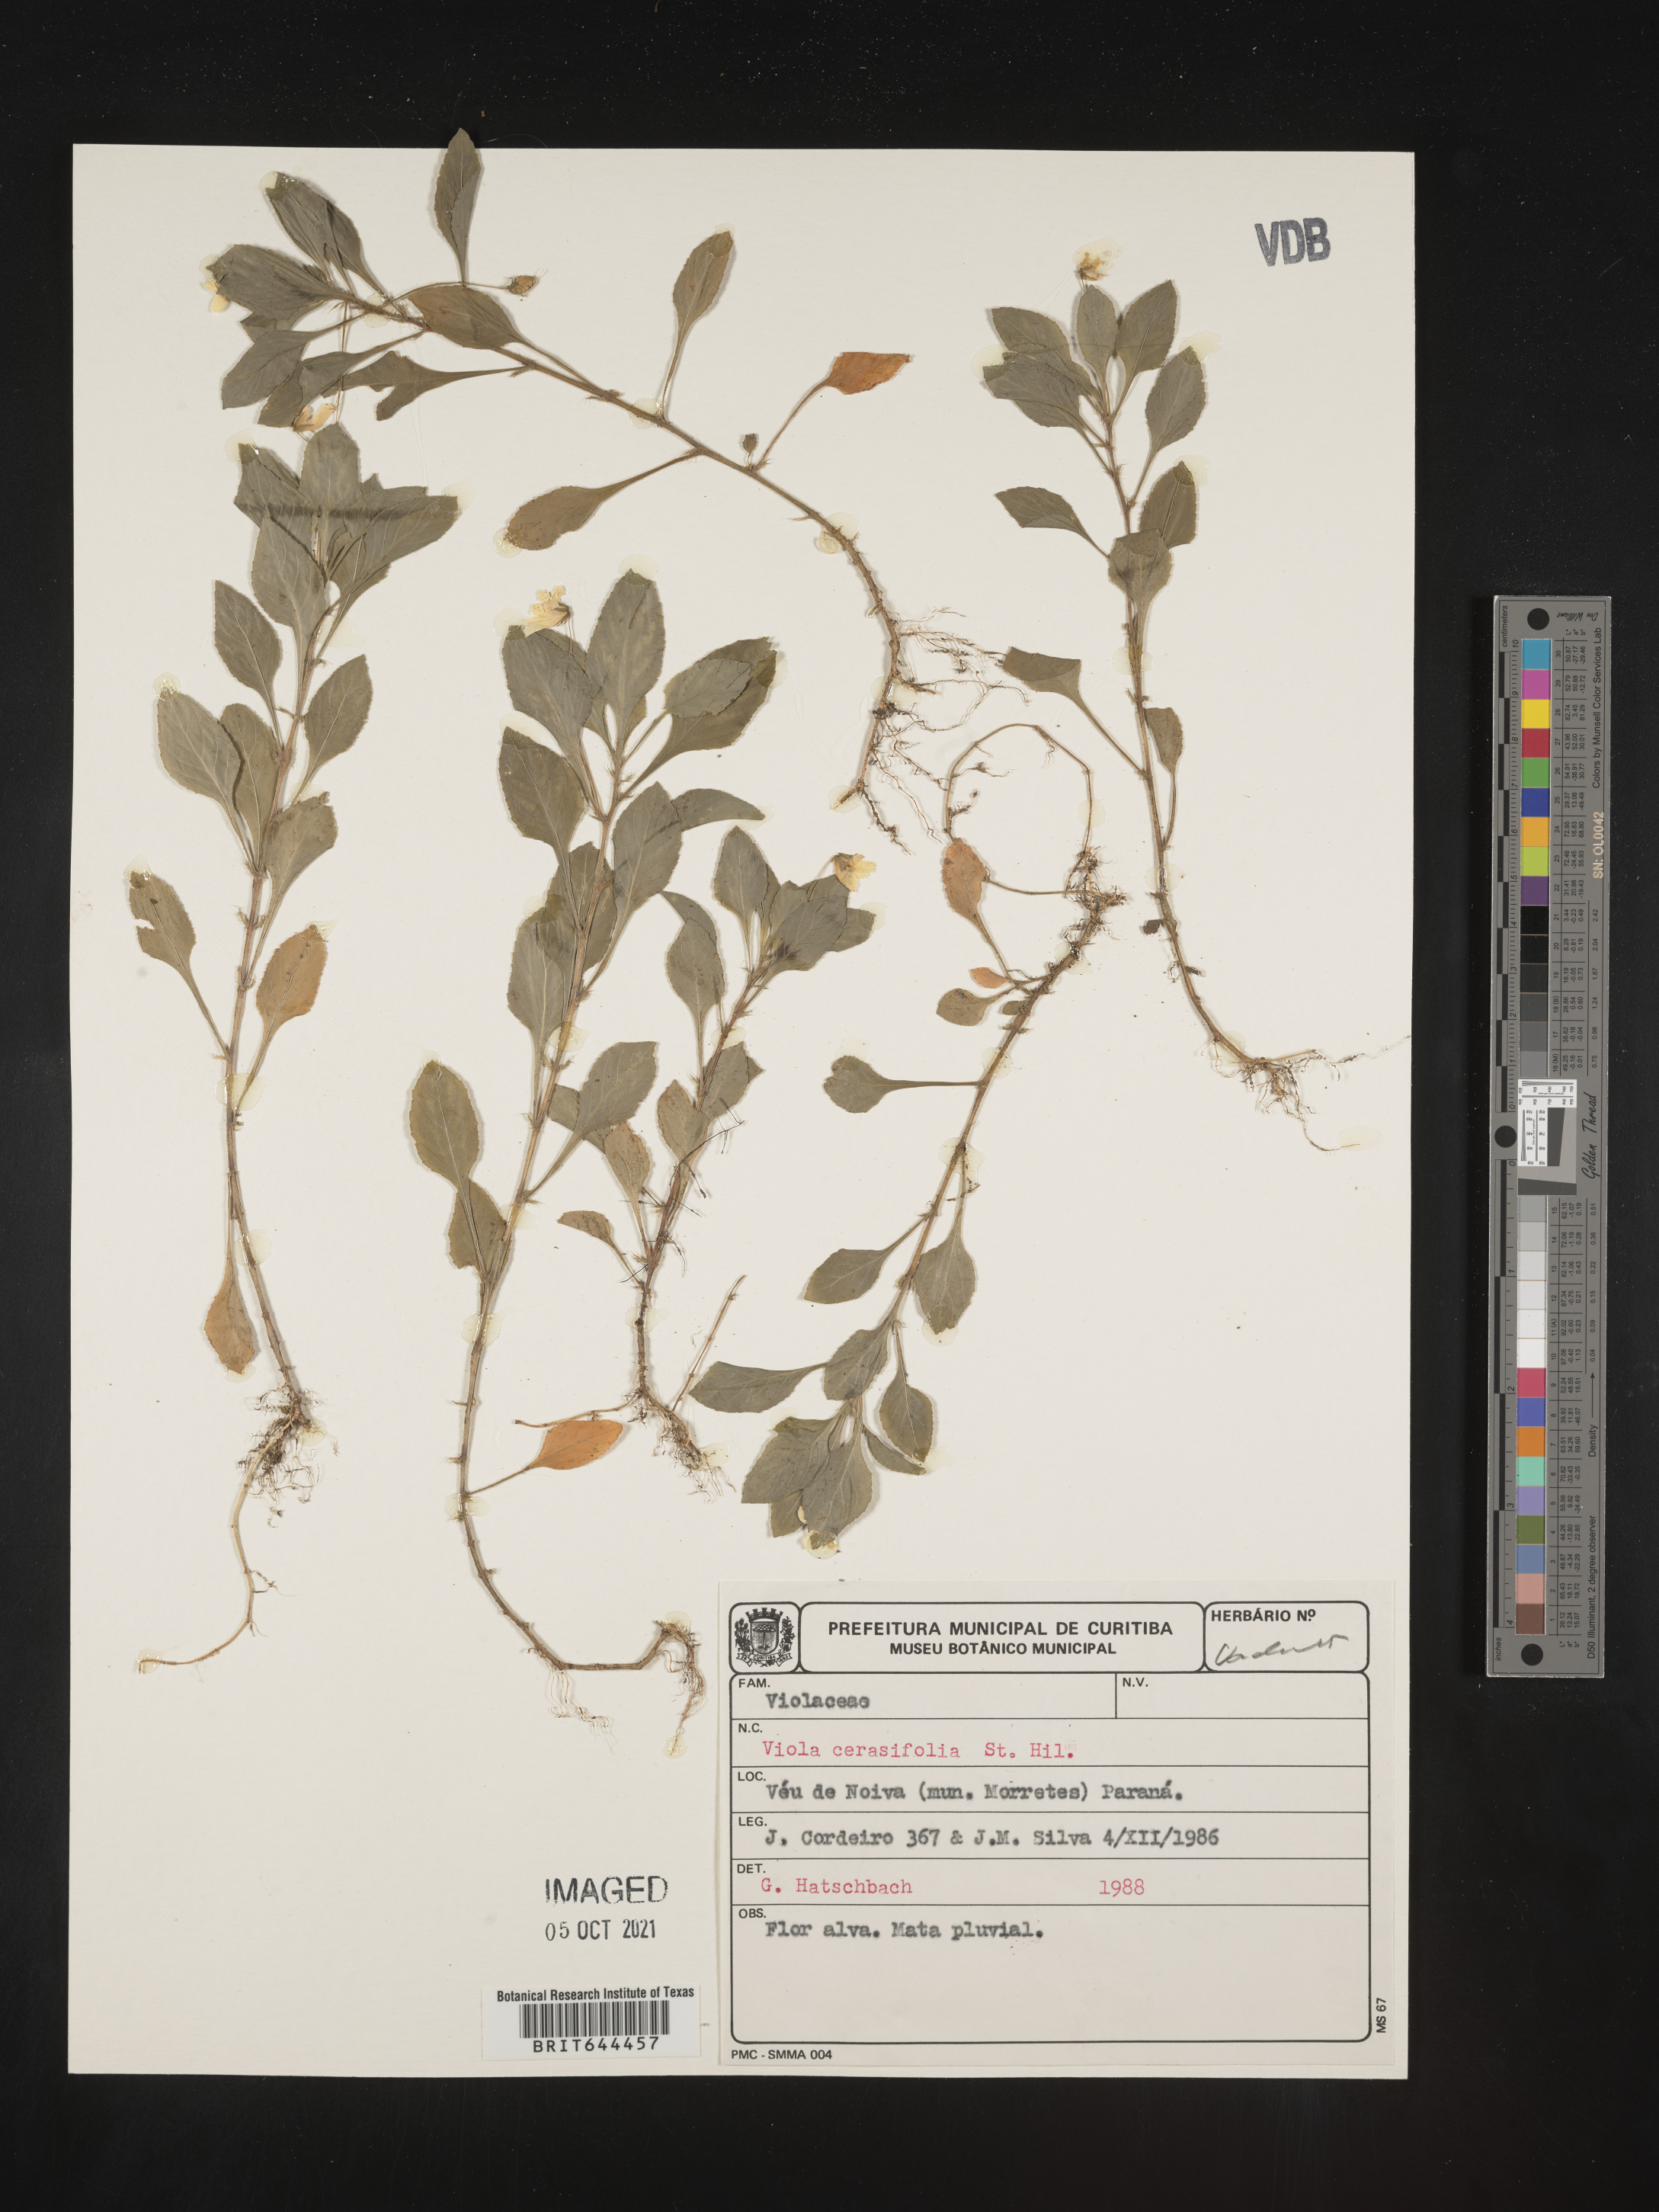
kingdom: Plantae
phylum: Tracheophyta
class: Magnoliopsida
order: Malpighiales
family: Violaceae
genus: Viola
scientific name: Viola
